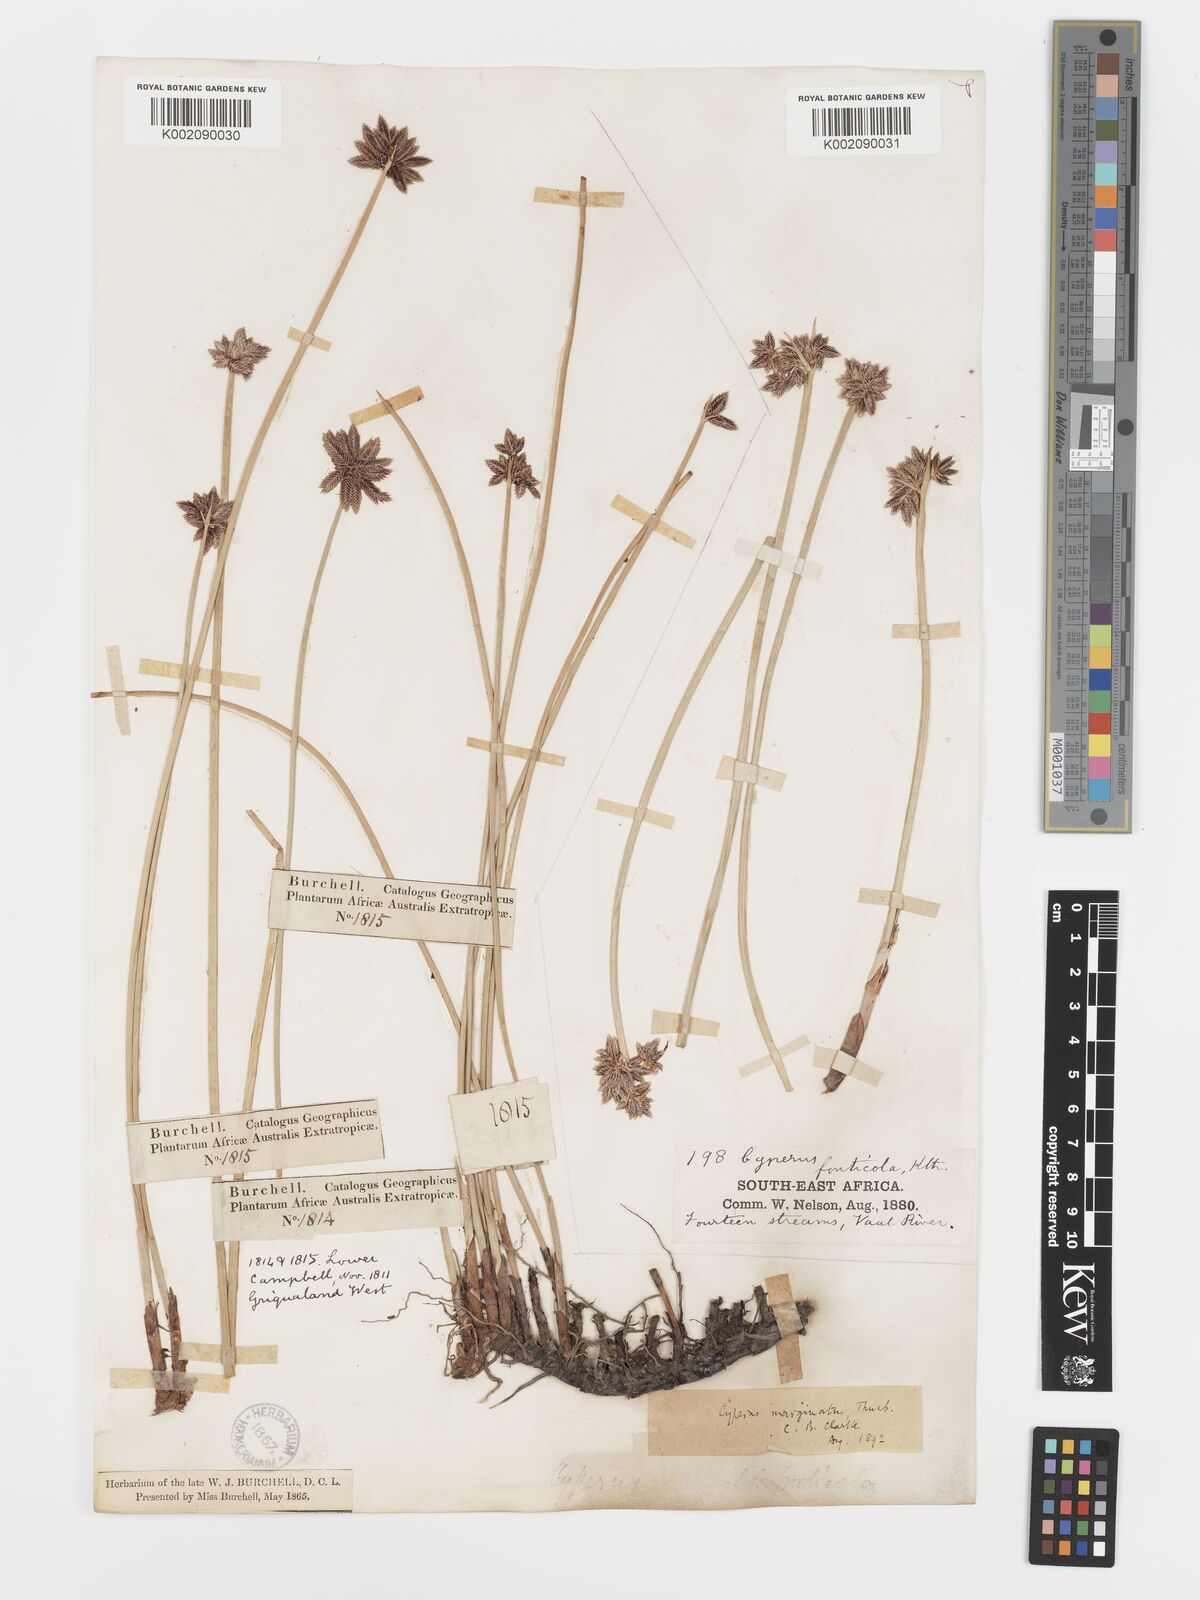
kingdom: Plantae
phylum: Tracheophyta
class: Liliopsida
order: Poales
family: Cyperaceae
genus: Cyperus
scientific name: Cyperus marginatus
